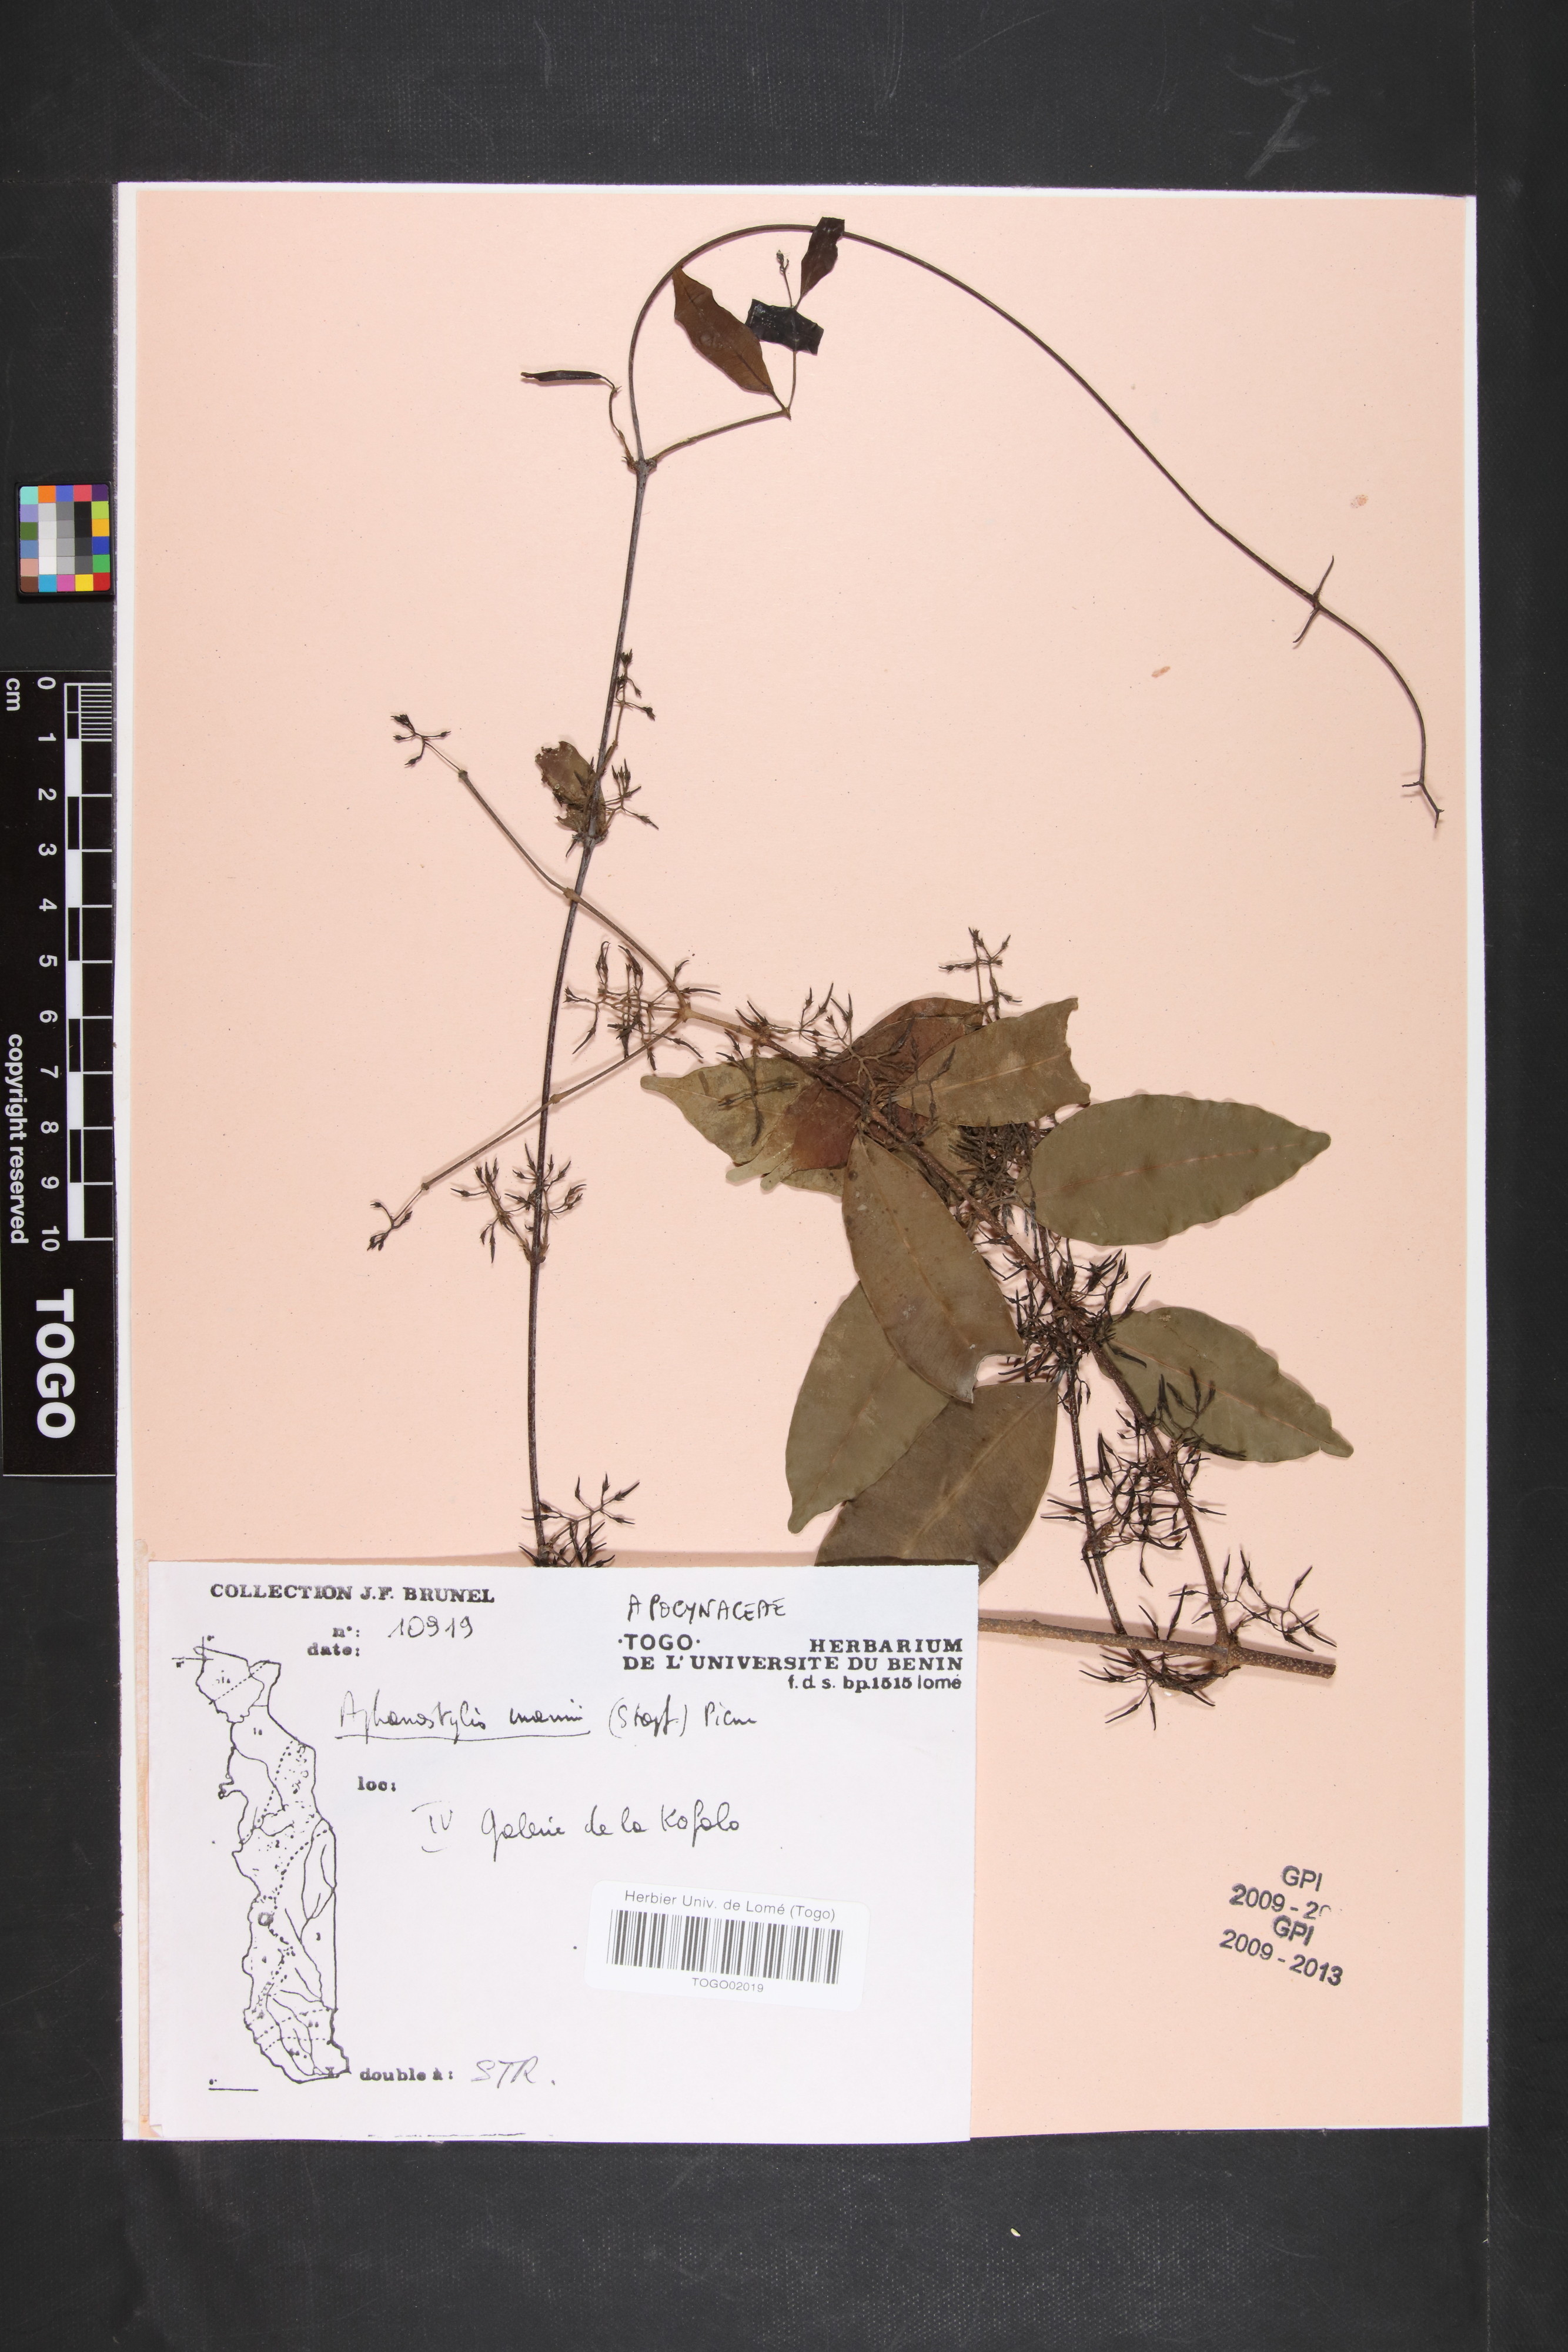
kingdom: Plantae
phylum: Tracheophyta
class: Magnoliopsida
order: Gentianales
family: Apocynaceae
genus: Landolphia
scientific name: Landolphia incerta
